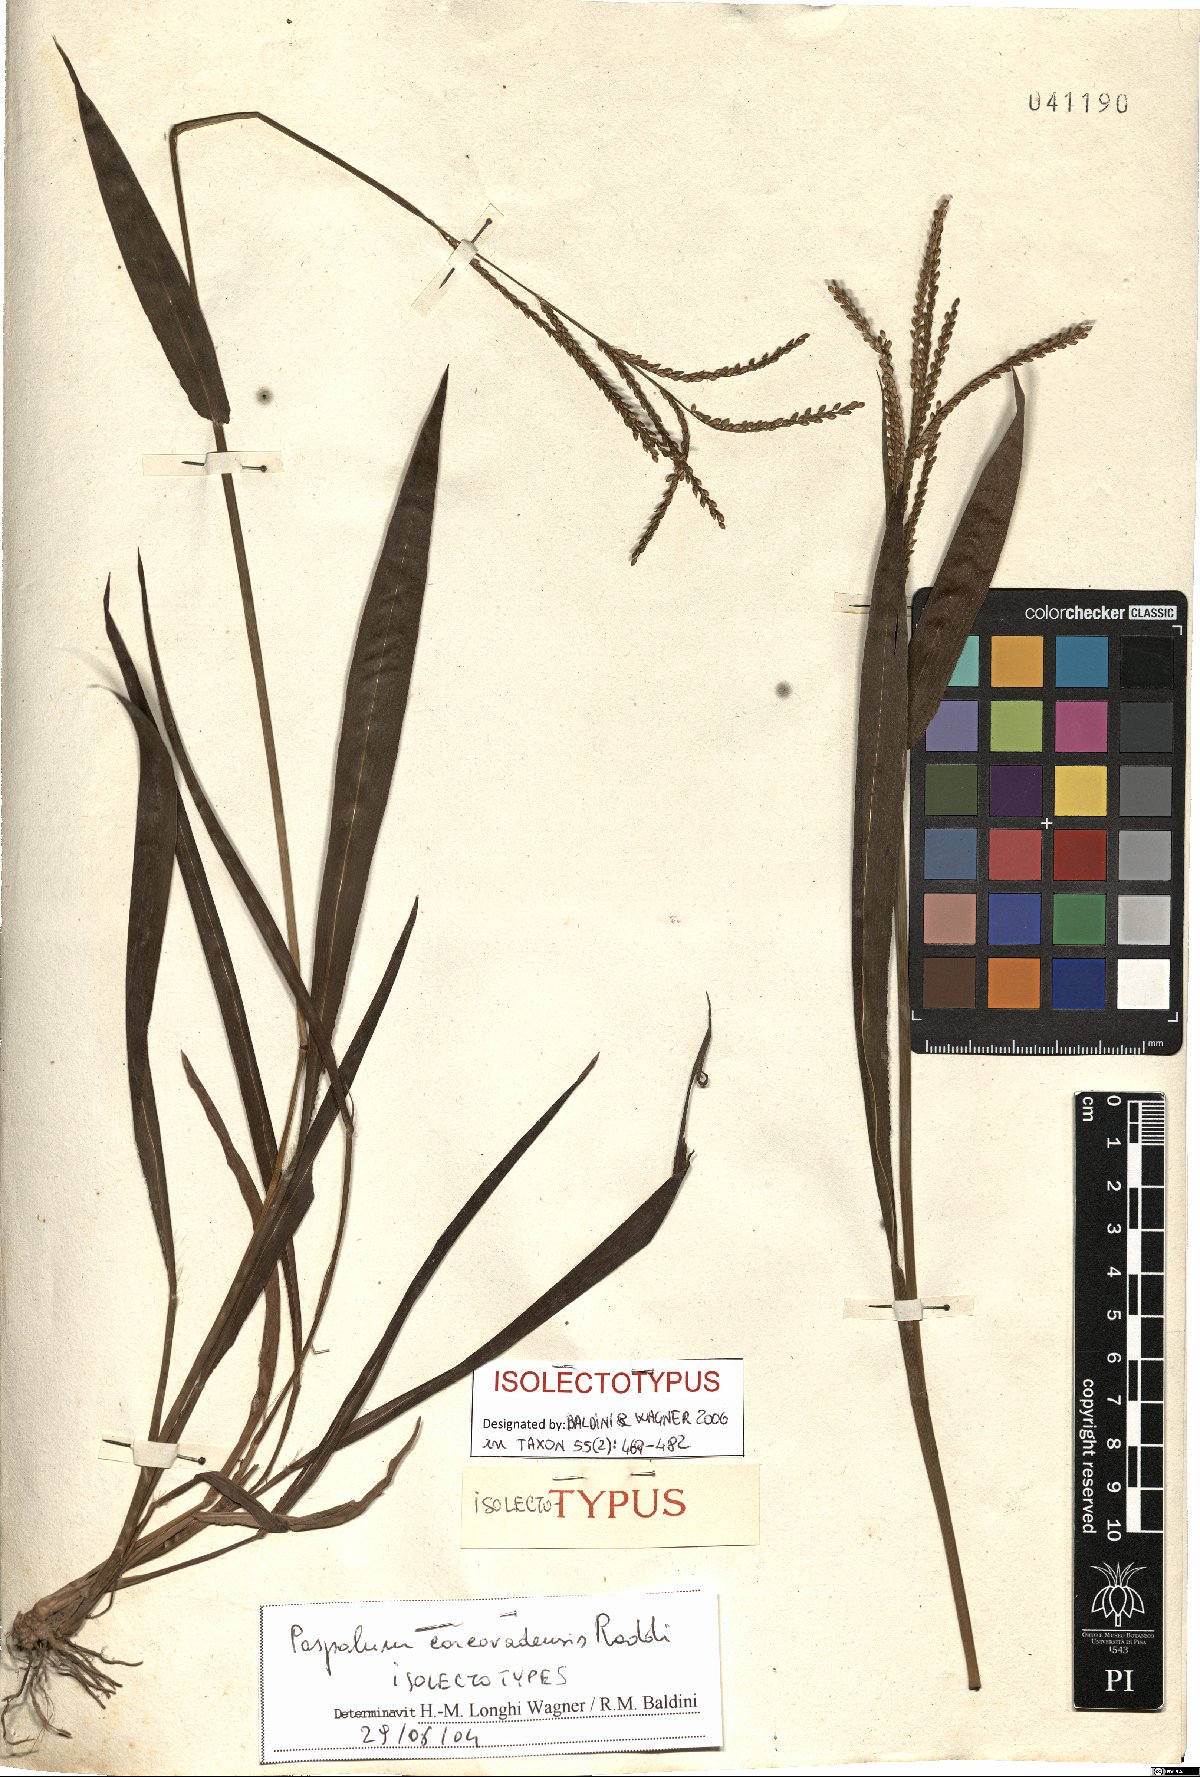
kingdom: Plantae
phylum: Tracheophyta
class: Liliopsida
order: Poales
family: Poaceae
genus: Paspalum
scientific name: Paspalum corcovadense
